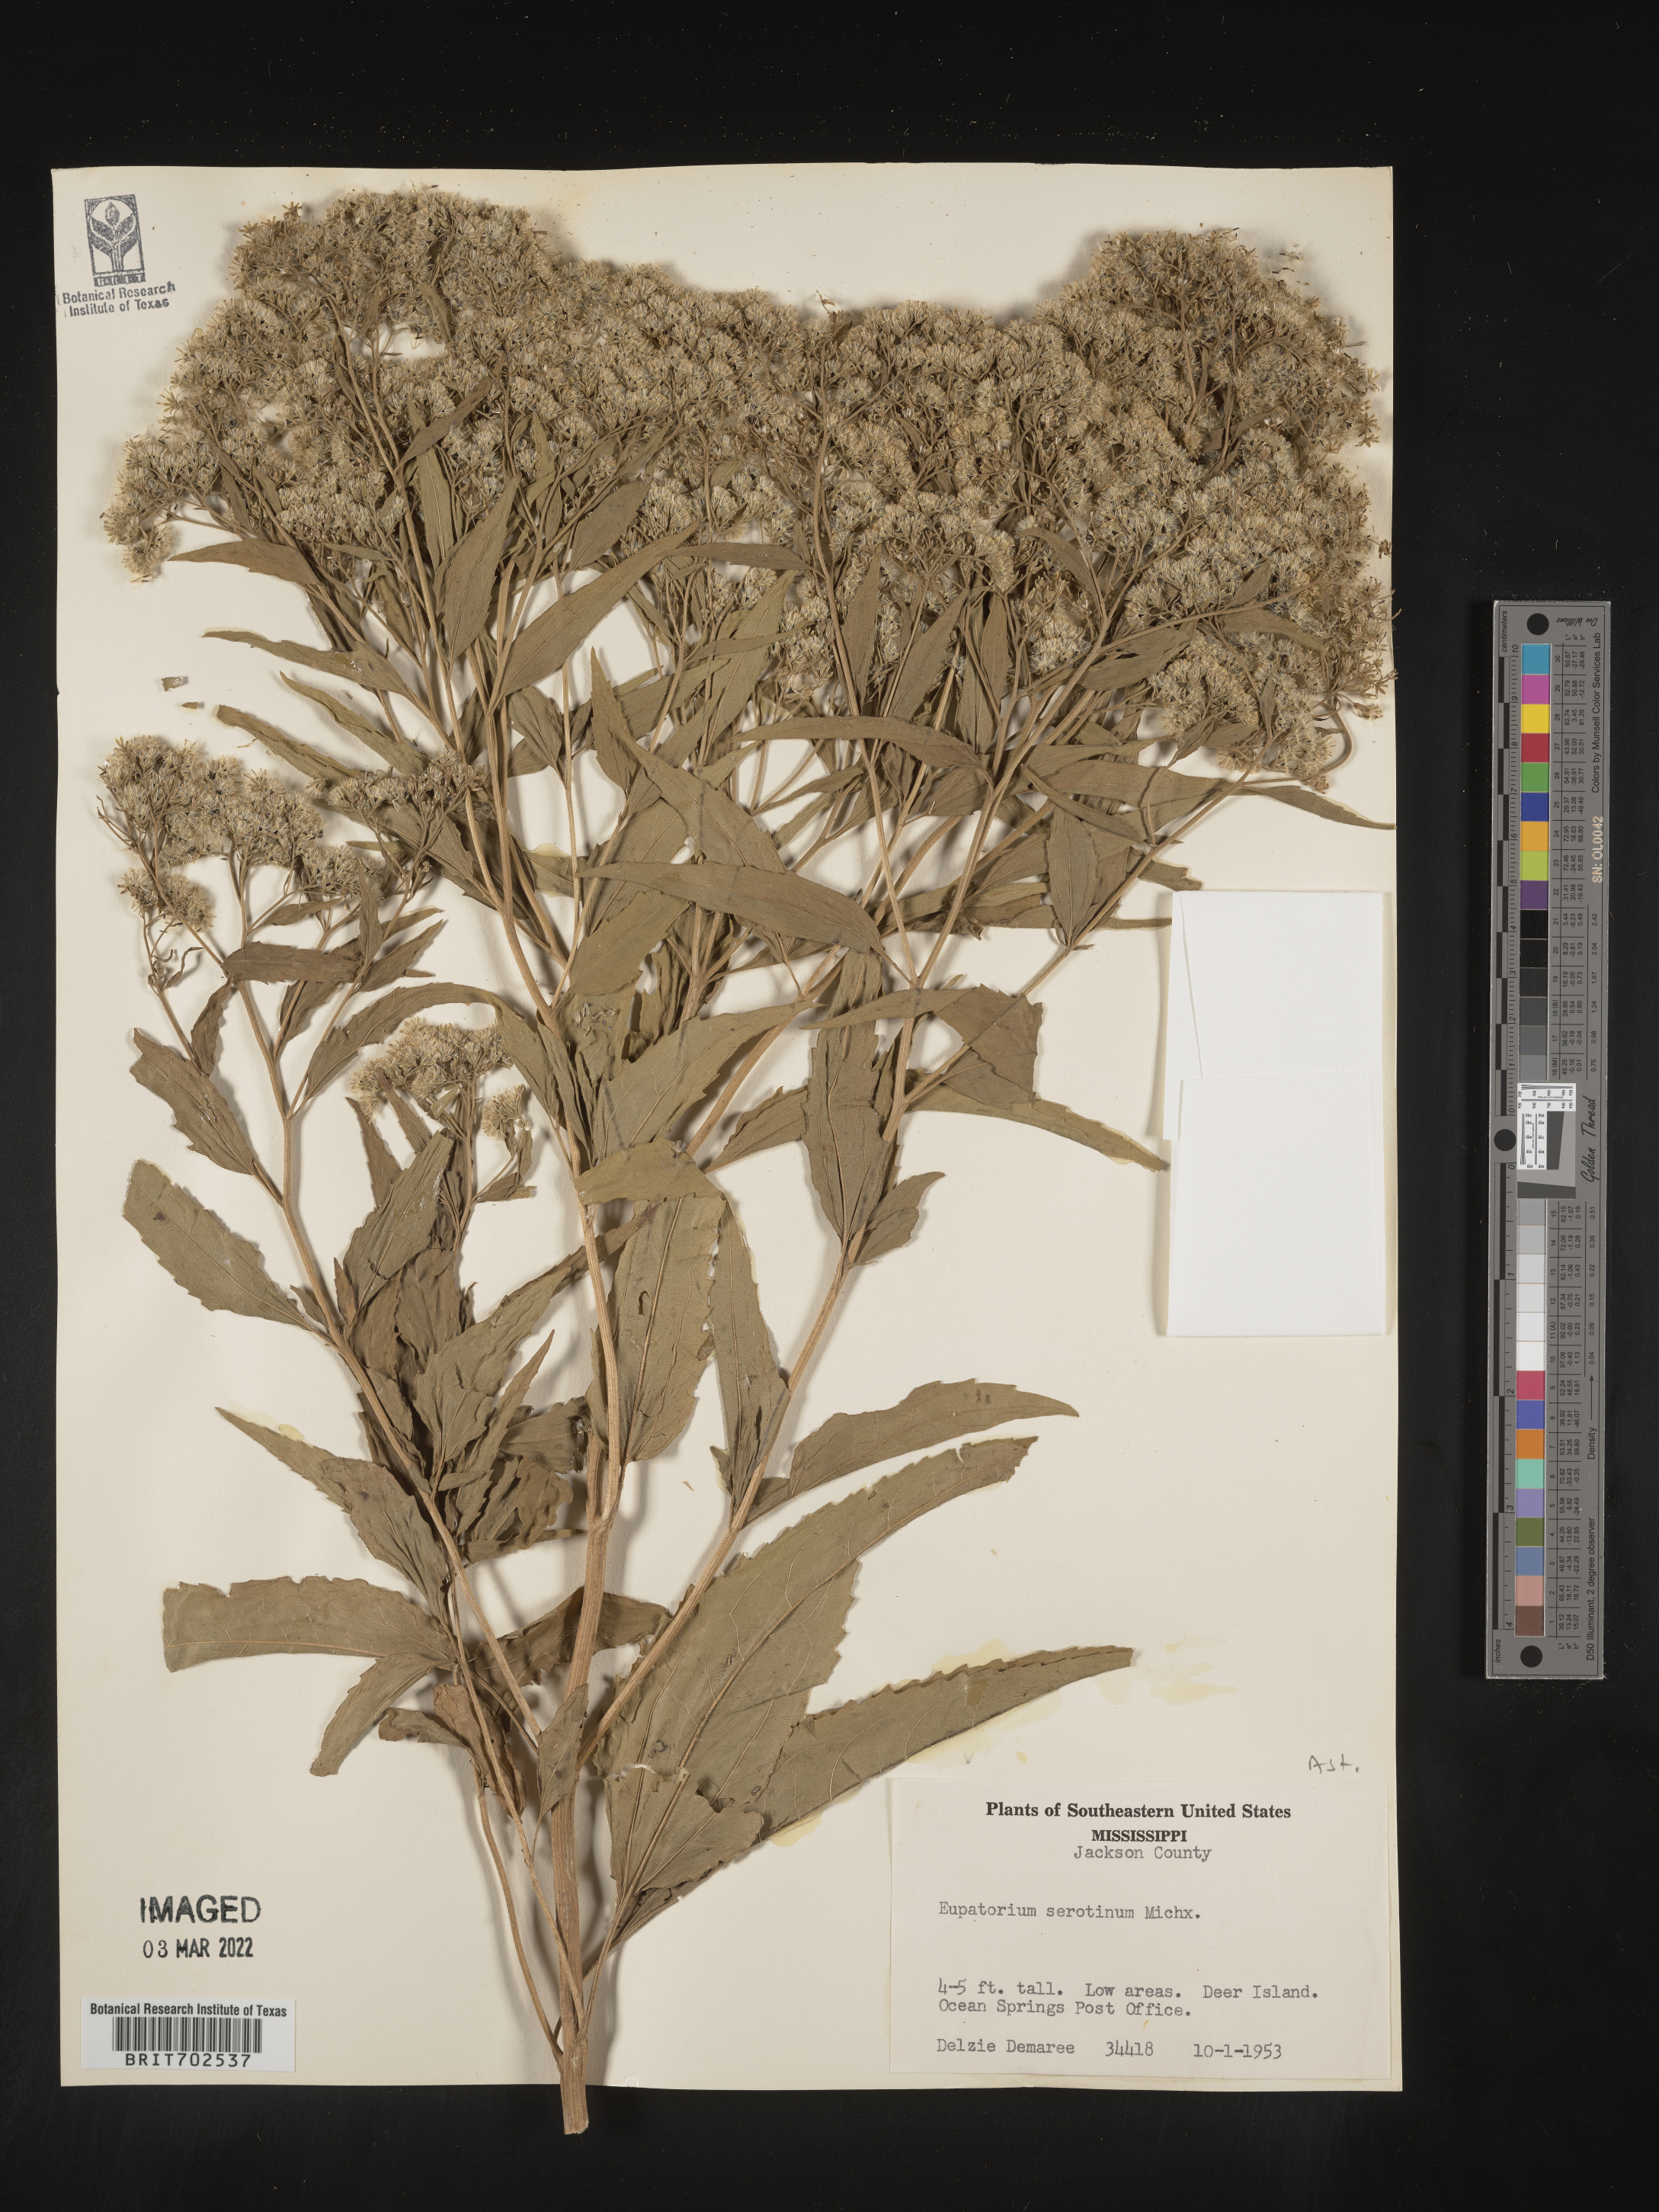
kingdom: Plantae
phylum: Tracheophyta
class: Magnoliopsida
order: Asterales
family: Asteraceae
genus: Eupatorium
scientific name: Eupatorium serotinum
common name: Late boneset
